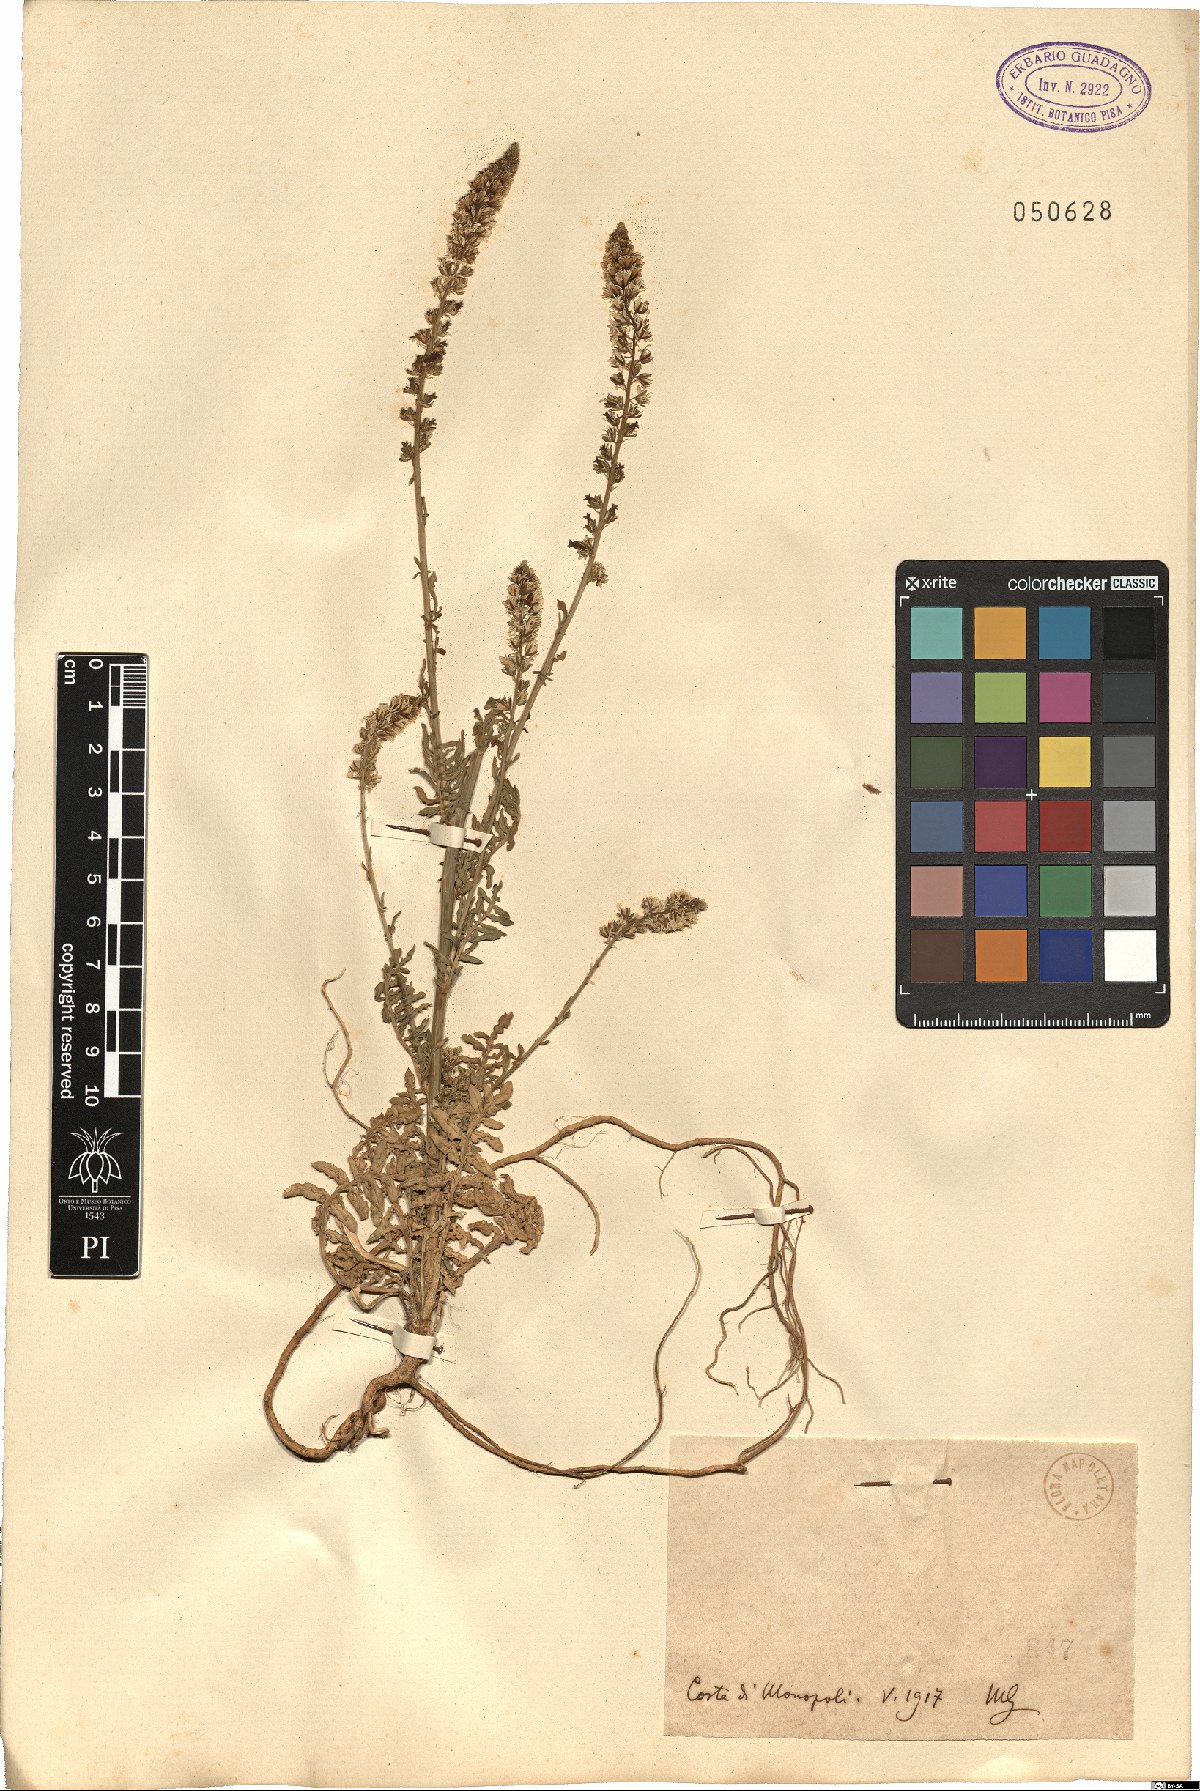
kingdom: Plantae
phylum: Tracheophyta
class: Magnoliopsida
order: Brassicales
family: Resedaceae
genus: Reseda
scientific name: Reseda
